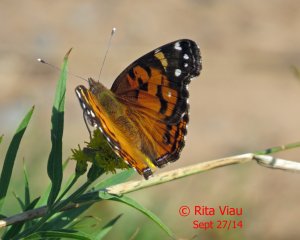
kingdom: Animalia
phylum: Arthropoda
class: Insecta
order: Lepidoptera
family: Nymphalidae
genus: Vanessa
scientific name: Vanessa virginiensis
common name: American Lady
